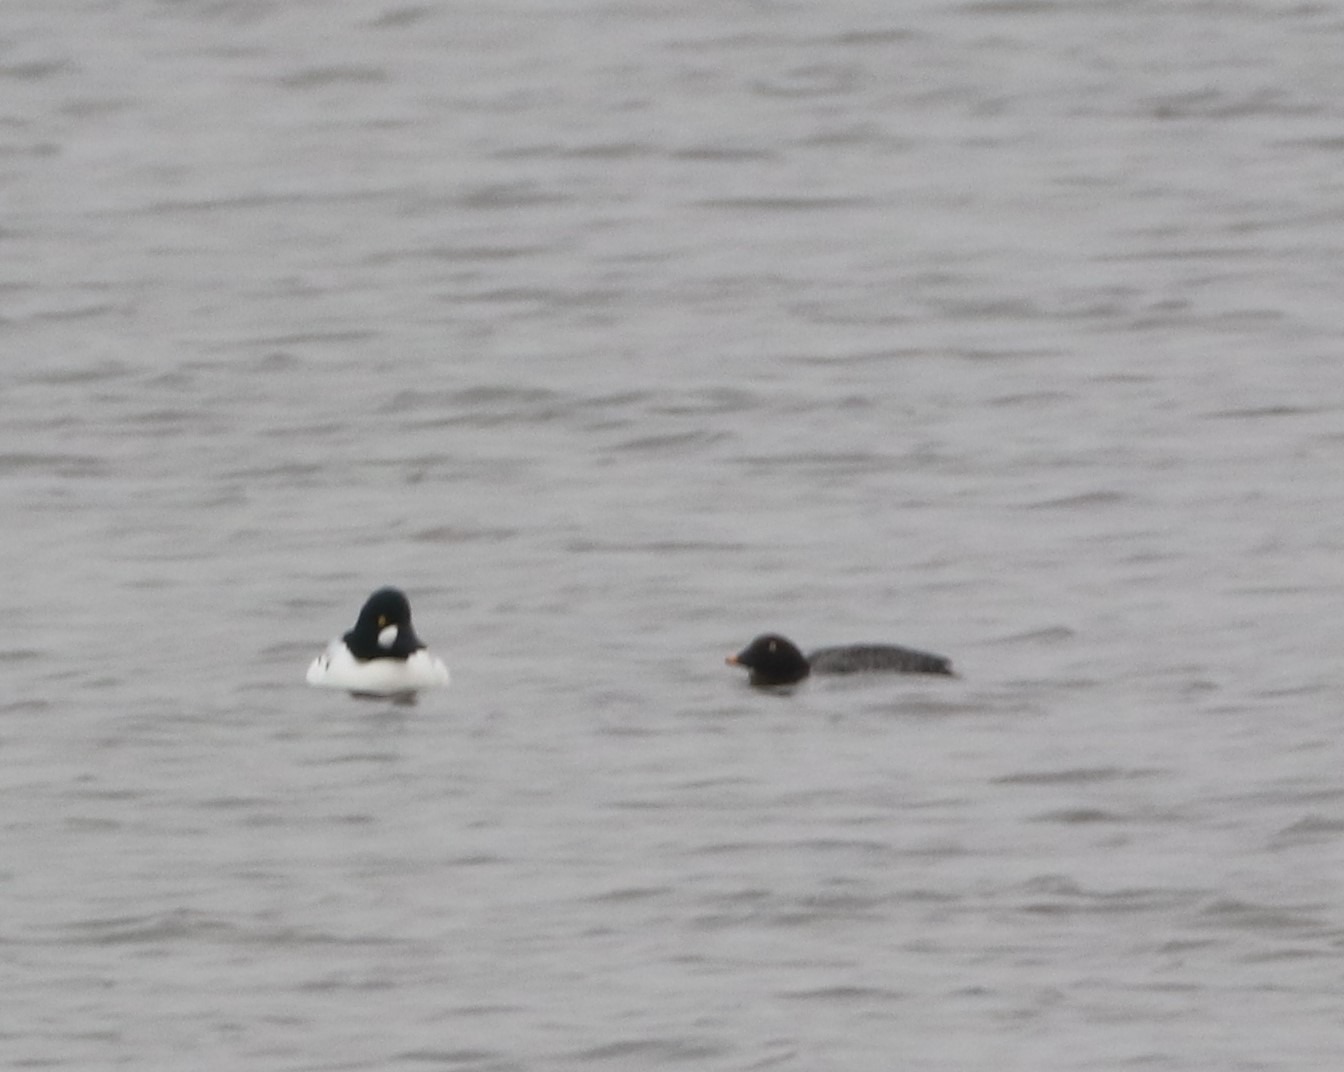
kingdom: Animalia
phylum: Chordata
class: Aves
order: Anseriformes
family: Anatidae
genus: Bucephala
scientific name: Bucephala clangula
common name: Hvinand
